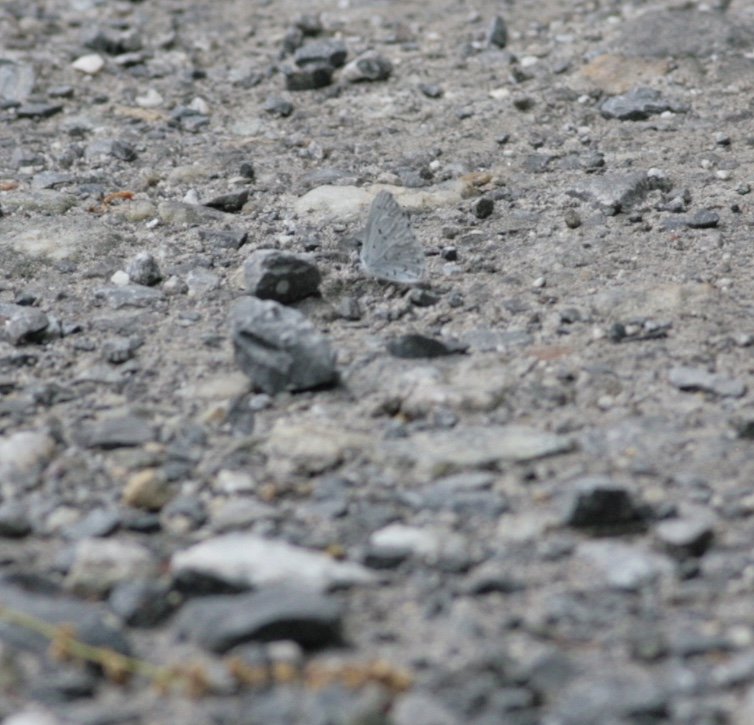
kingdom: Animalia
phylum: Arthropoda
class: Insecta
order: Lepidoptera
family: Lycaenidae
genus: Celastrina
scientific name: Celastrina ladon
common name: Spring Azure
